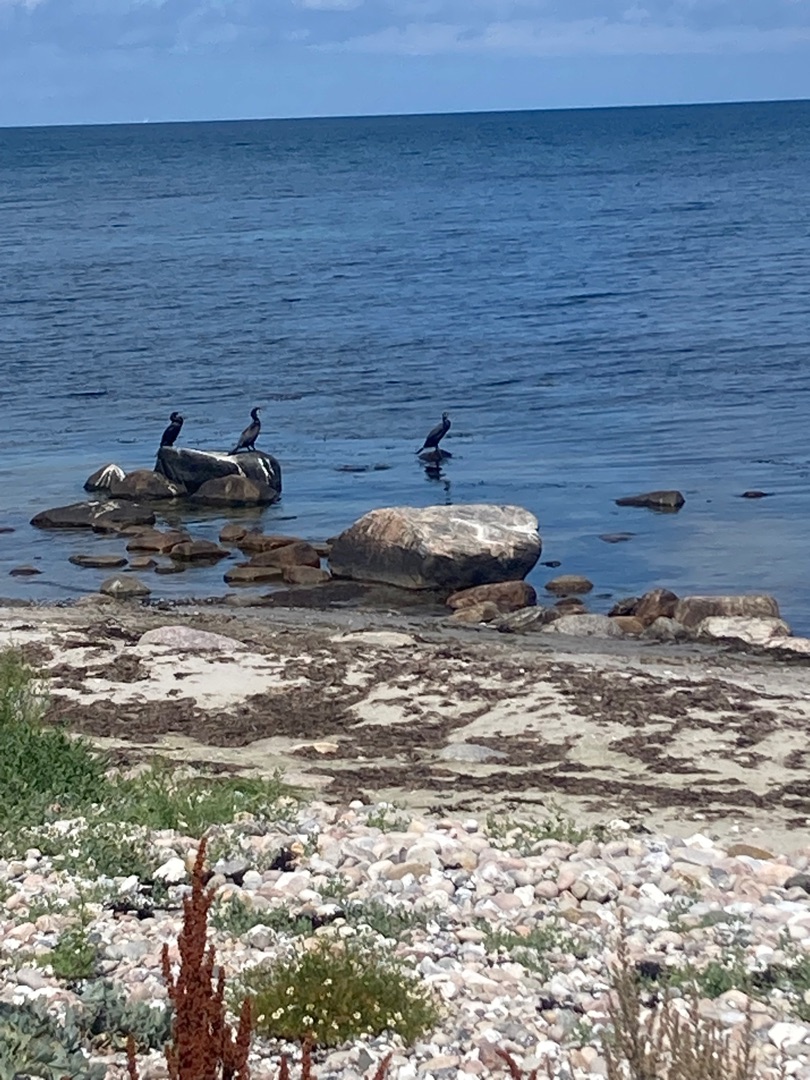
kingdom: Animalia
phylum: Chordata
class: Aves
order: Suliformes
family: Phalacrocoracidae
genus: Phalacrocorax
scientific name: Phalacrocorax carbo
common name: Skarv
